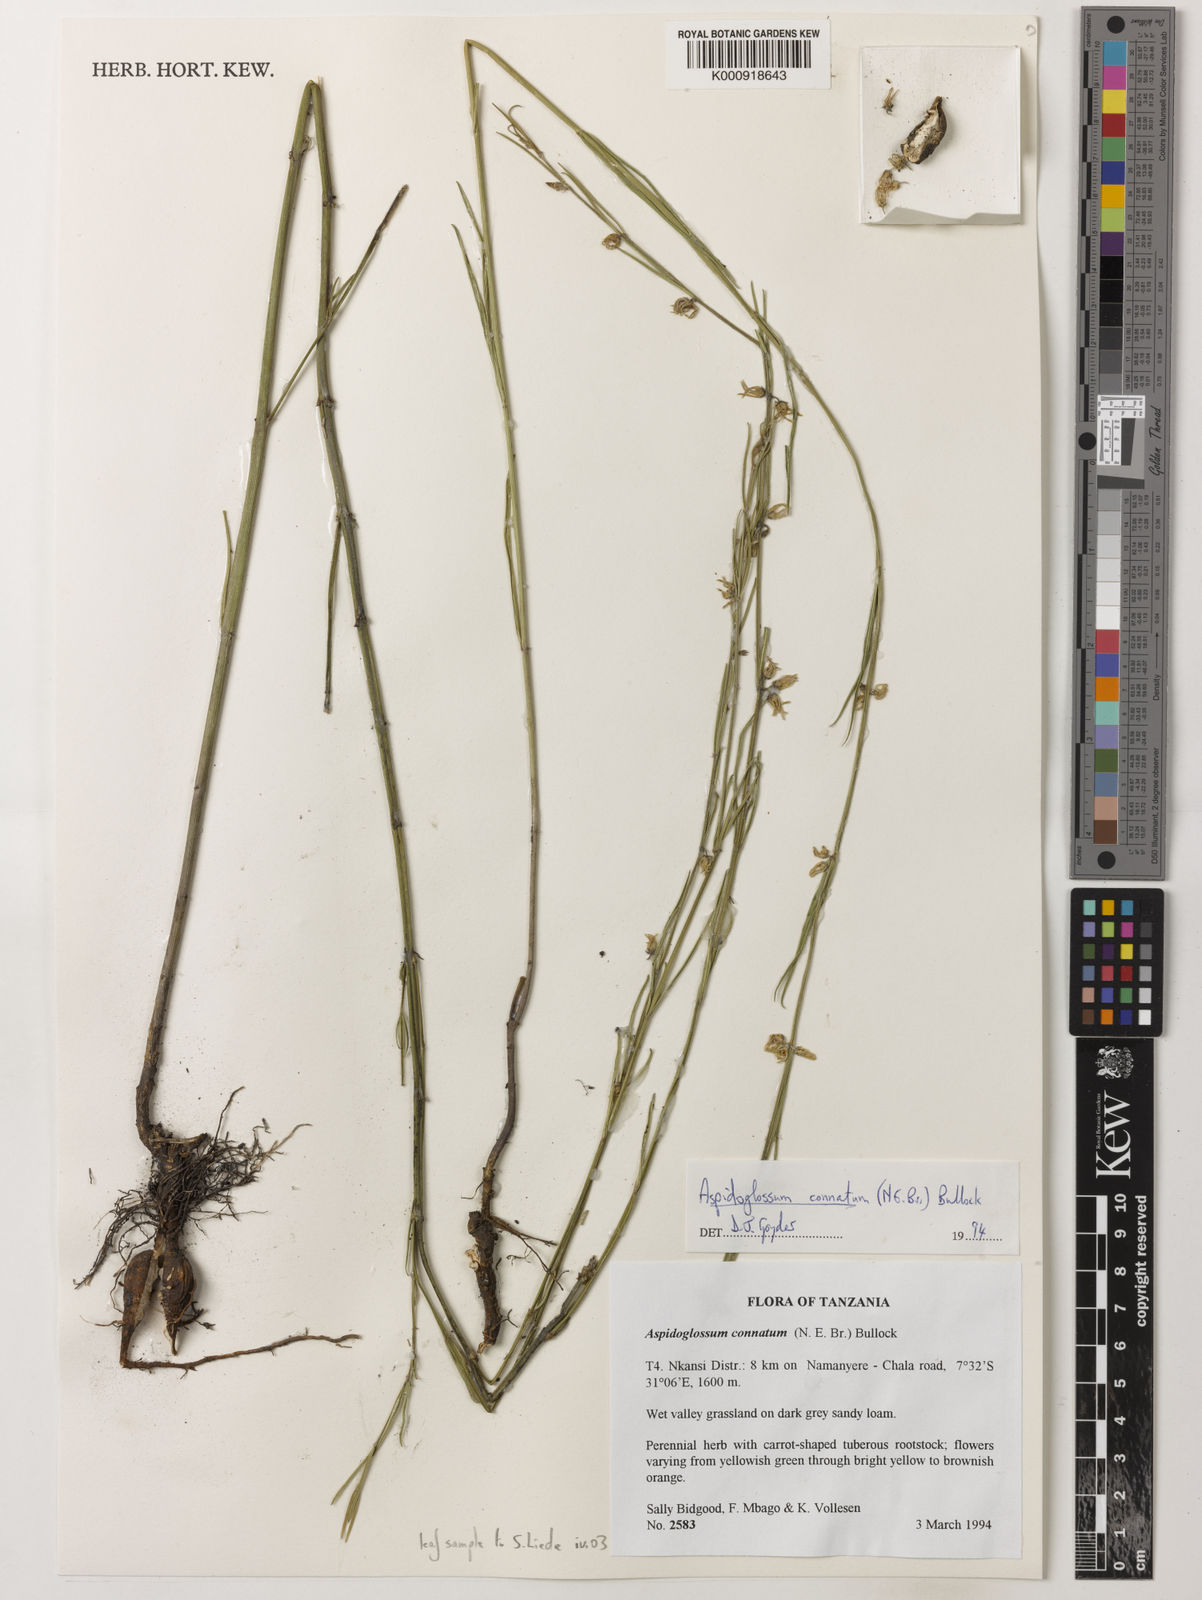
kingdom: Plantae
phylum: Tracheophyta
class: Magnoliopsida
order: Gentianales
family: Apocynaceae
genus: Aspidoglossum
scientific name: Aspidoglossum connatum
